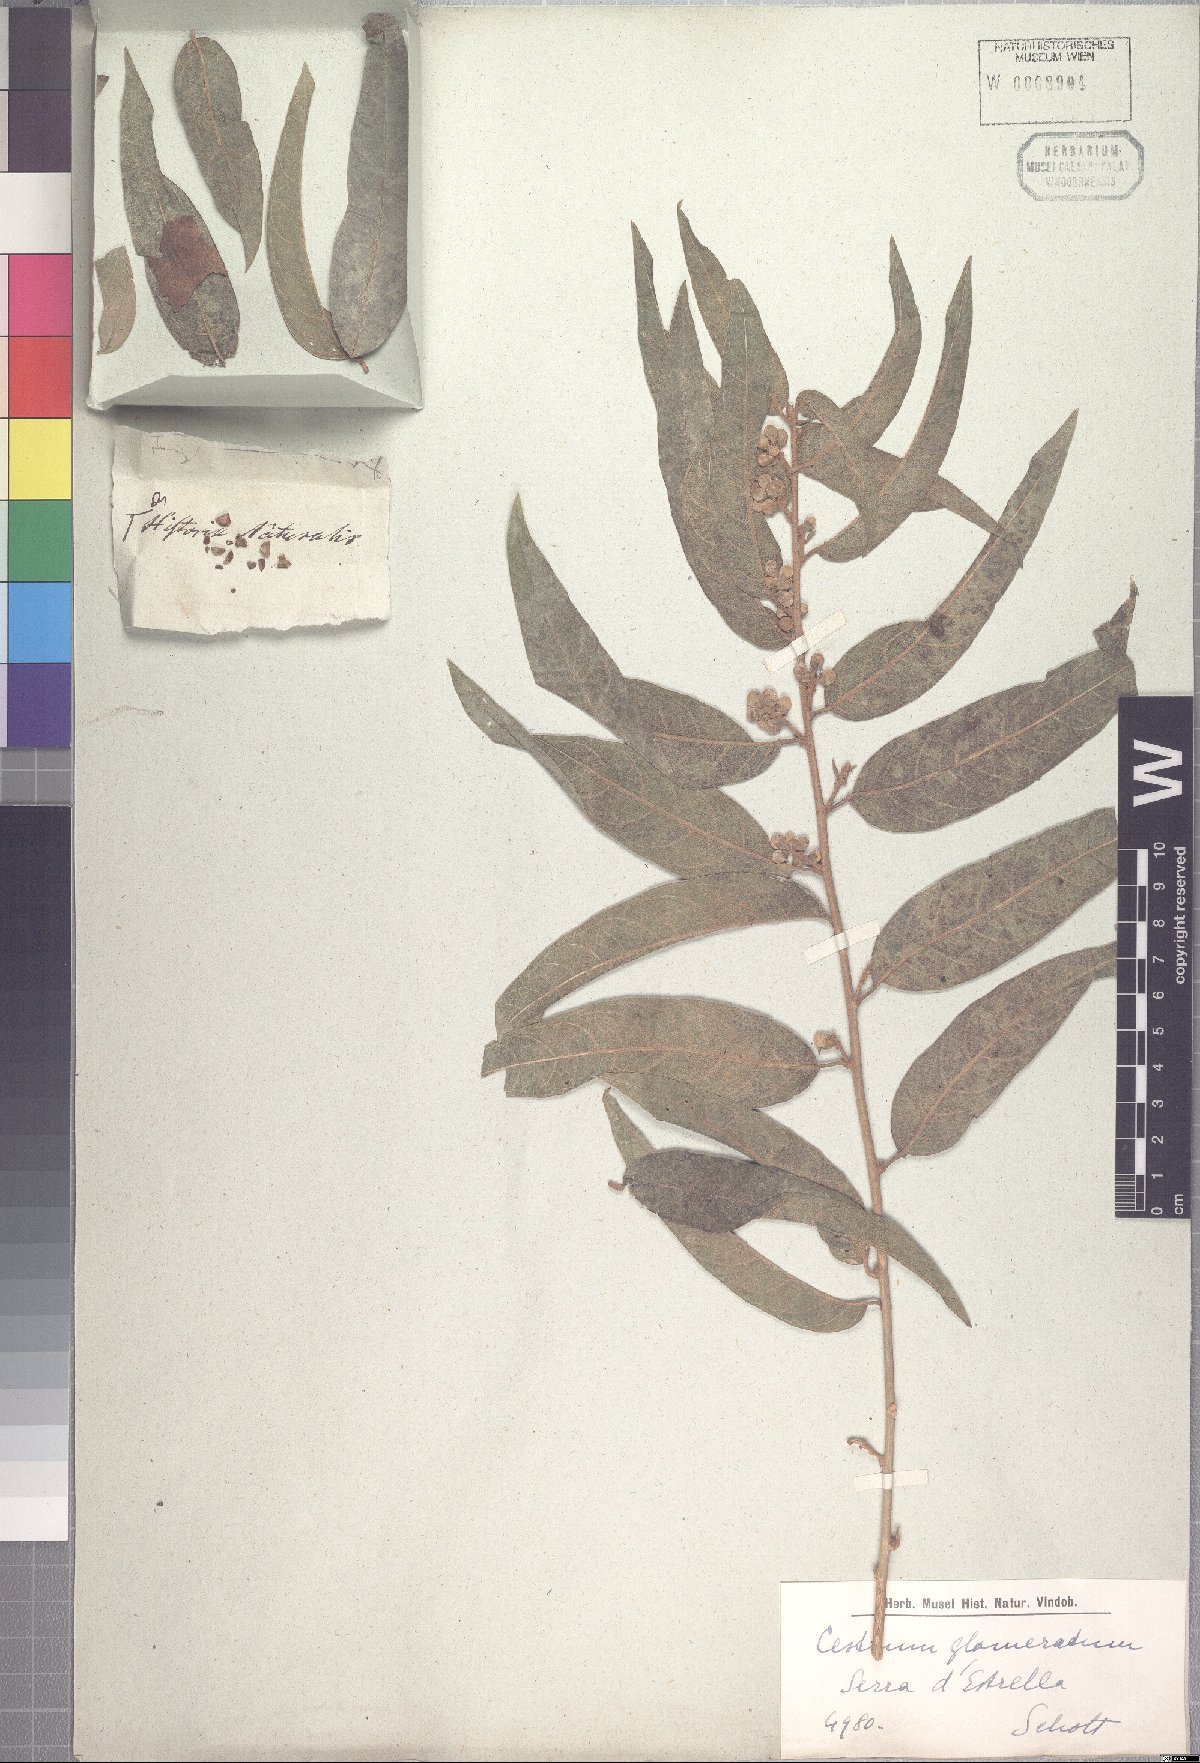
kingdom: Plantae
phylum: Tracheophyta
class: Magnoliopsida
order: Solanales
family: Solanaceae
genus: Cestrum
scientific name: Cestrum subpulverulentum
